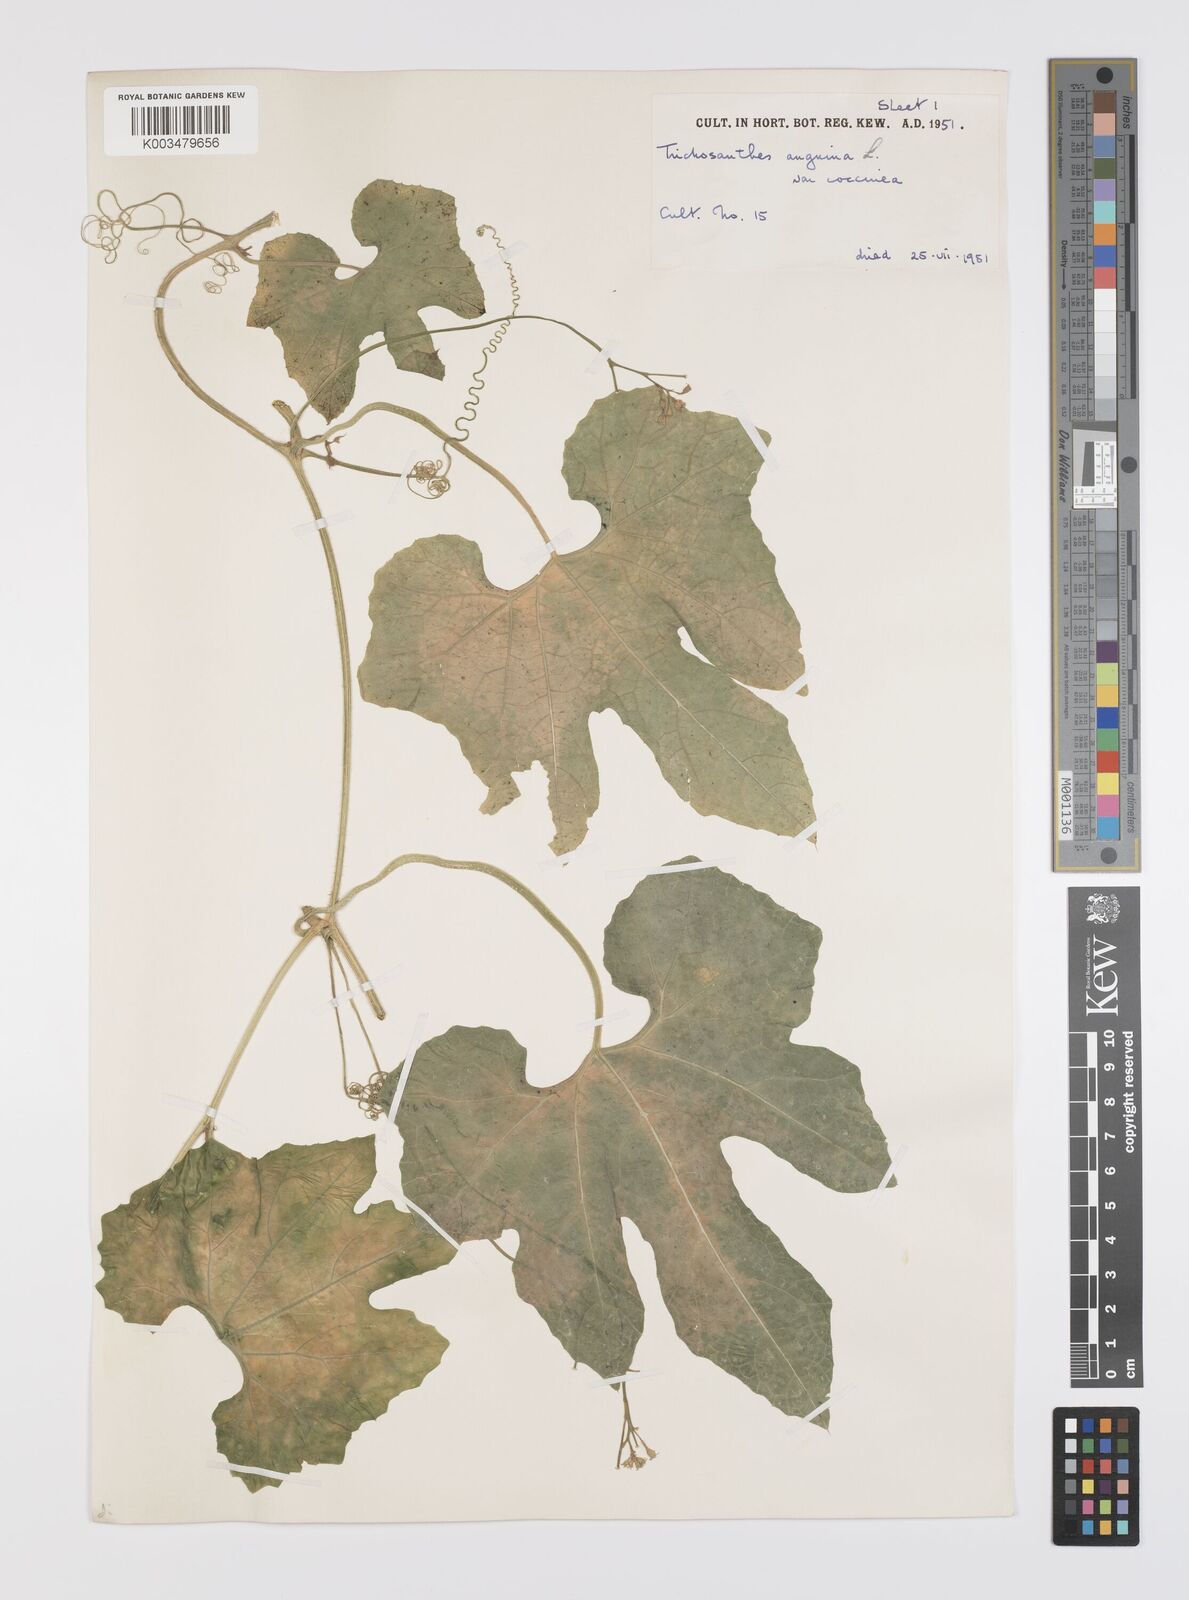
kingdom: Plantae
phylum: Tracheophyta
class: Magnoliopsida
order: Cucurbitales
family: Cucurbitaceae
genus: Trichosanthes
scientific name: Trichosanthes cucumerina
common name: Snakegourd
